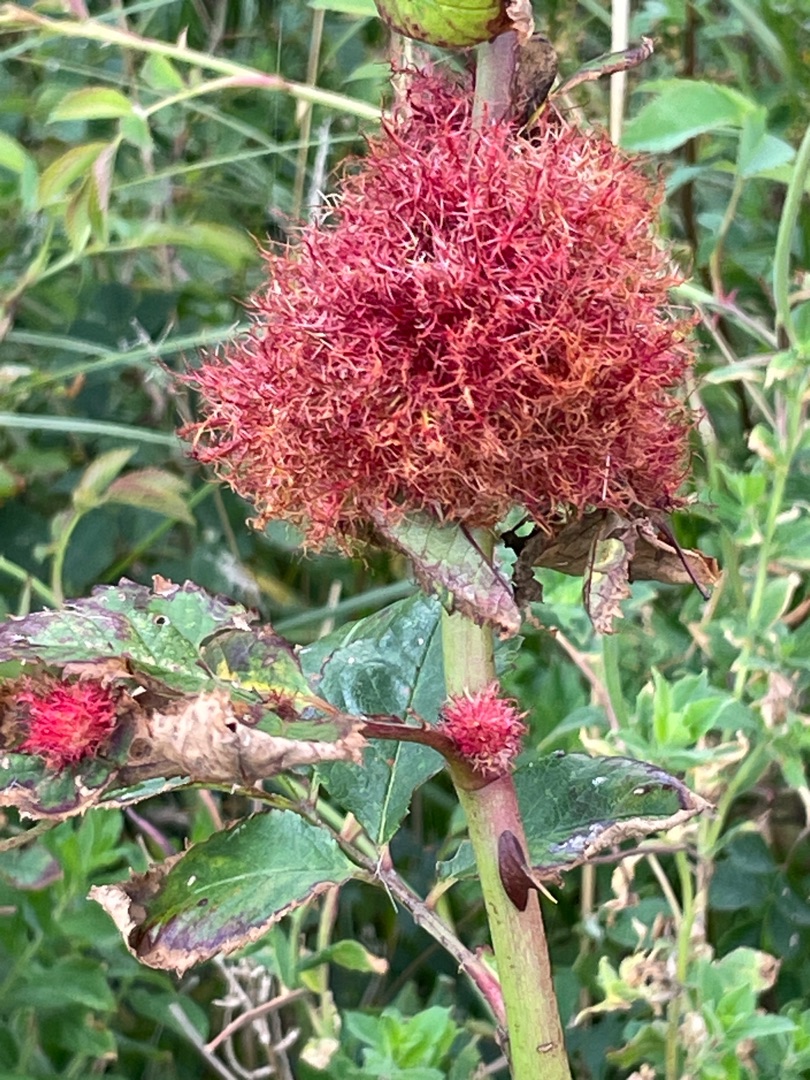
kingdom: Animalia
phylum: Arthropoda
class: Insecta
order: Hymenoptera
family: Cynipidae
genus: Diplolepis
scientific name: Diplolepis rosae
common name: Bedeguargalhveps
